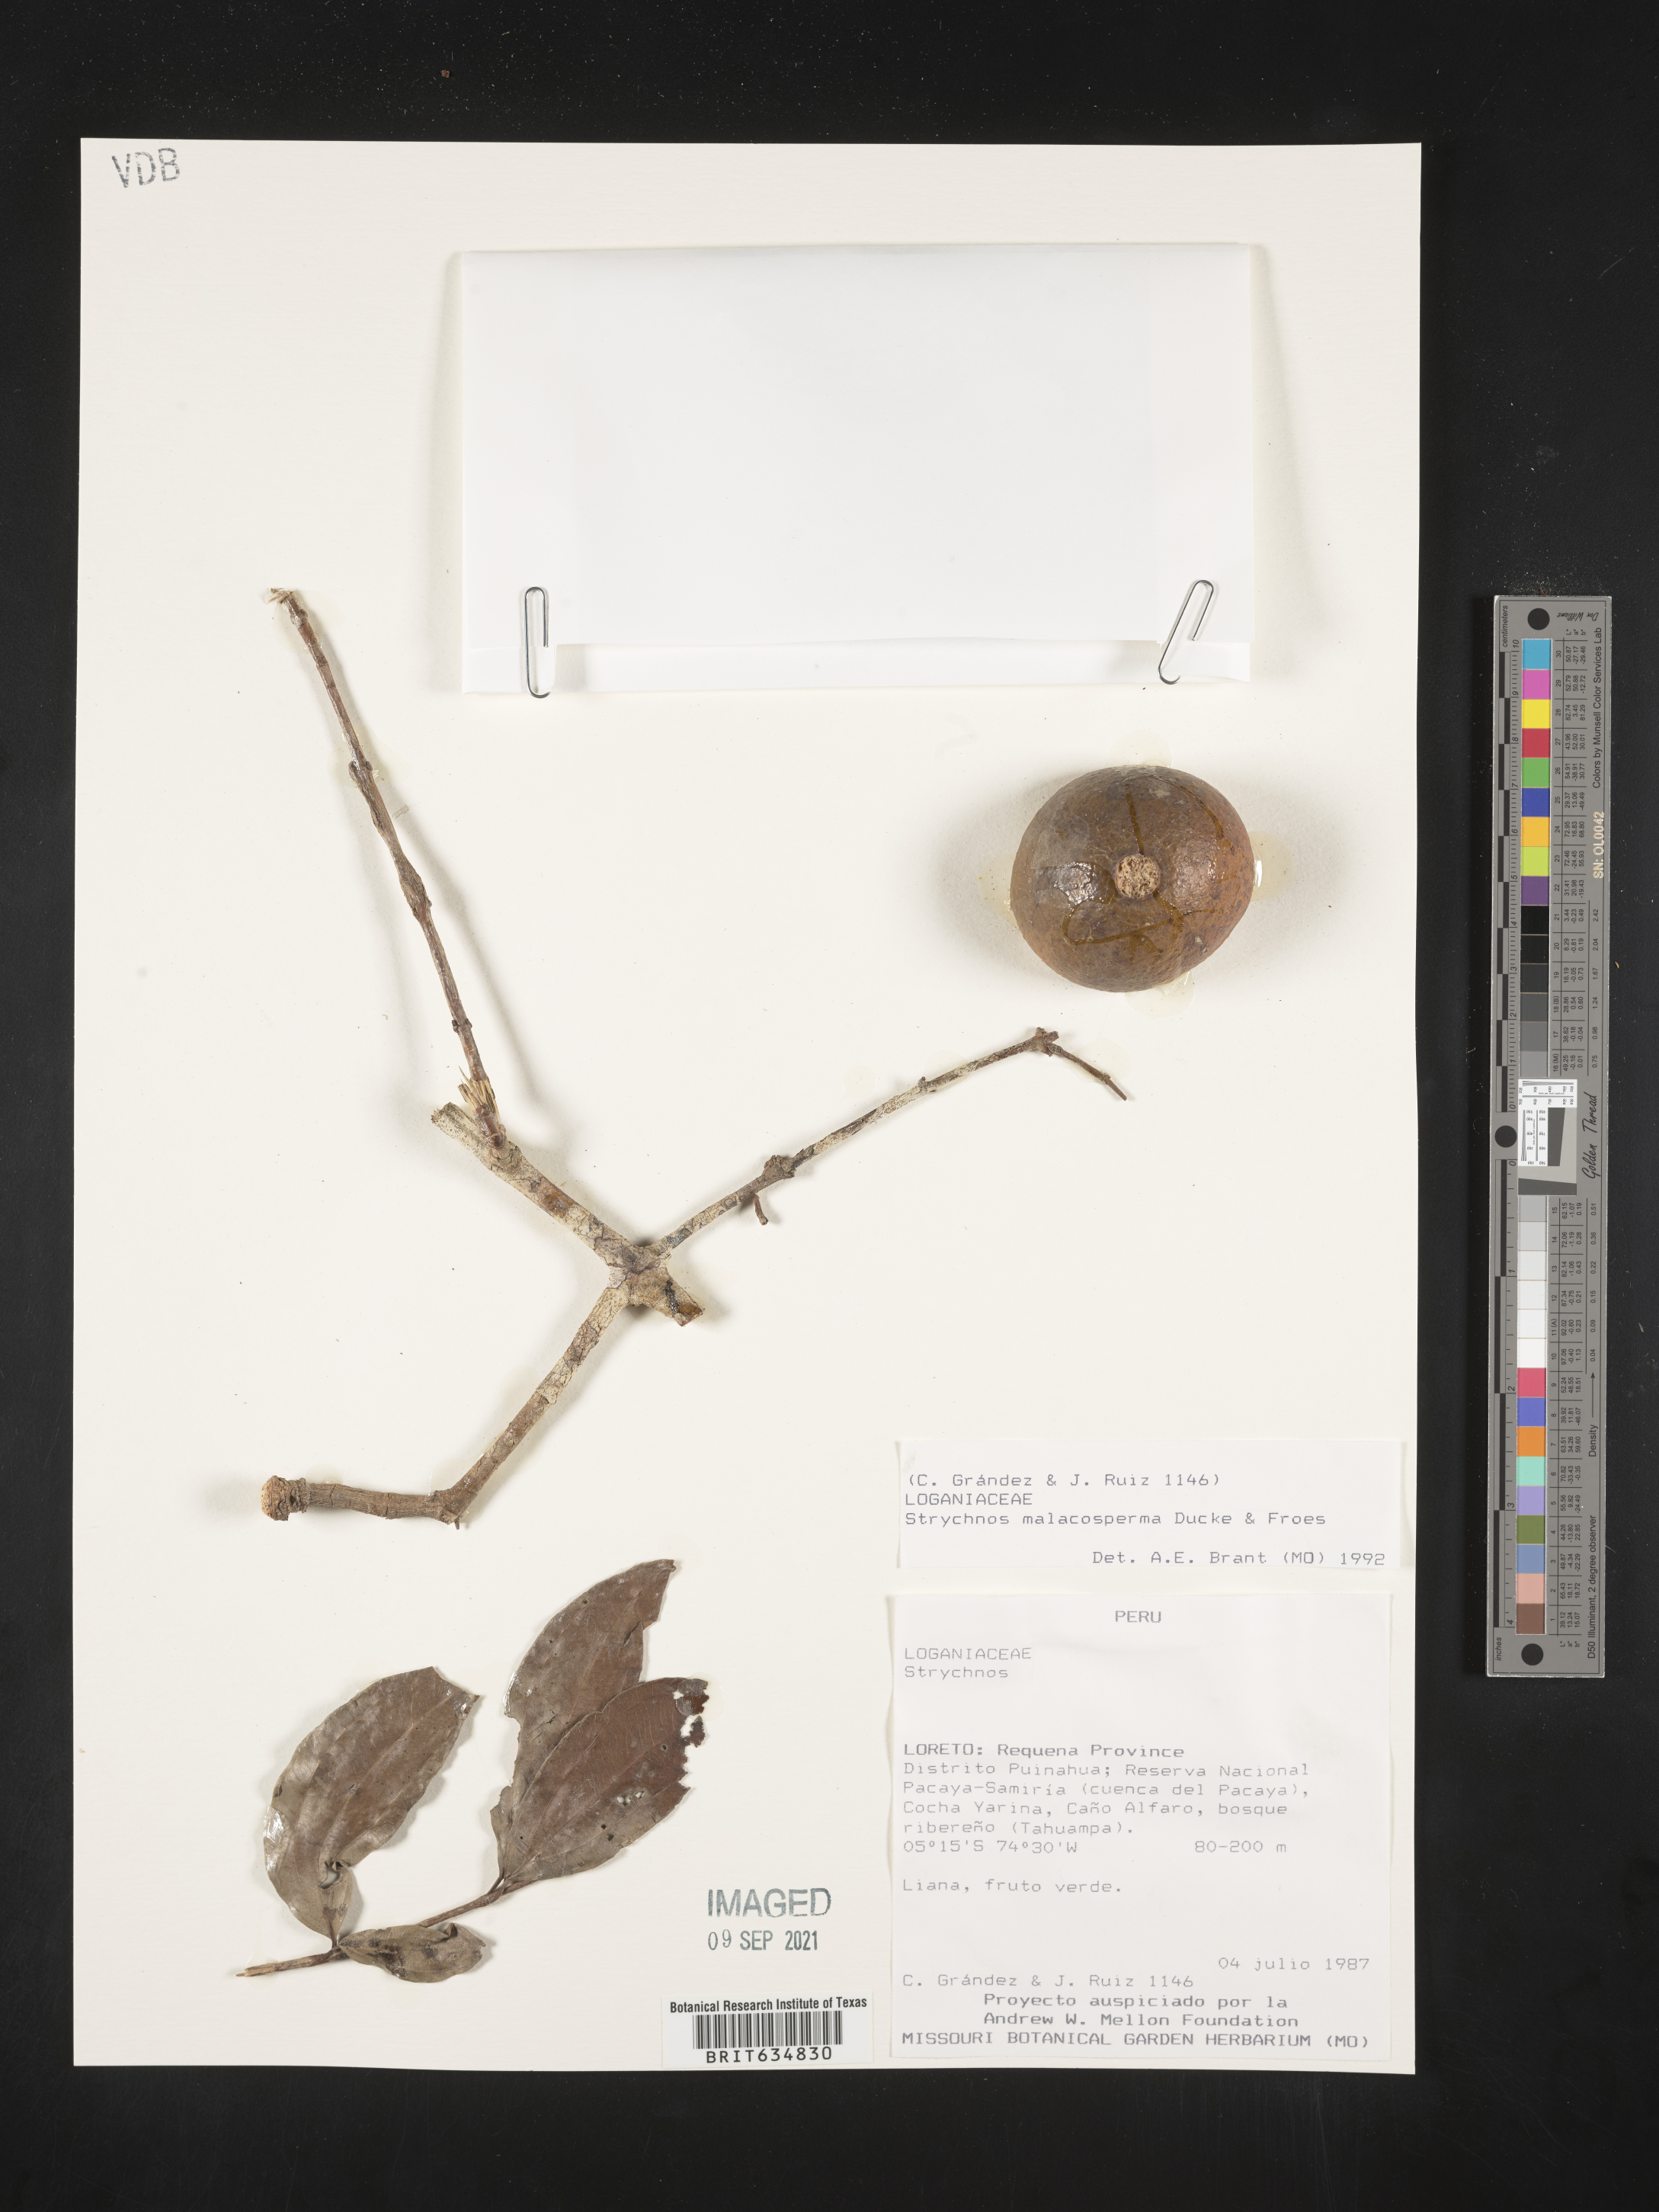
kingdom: Plantae
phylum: Tracheophyta
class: Magnoliopsida
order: Gentianales
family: Loganiaceae
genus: Strychnos
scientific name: Strychnos
